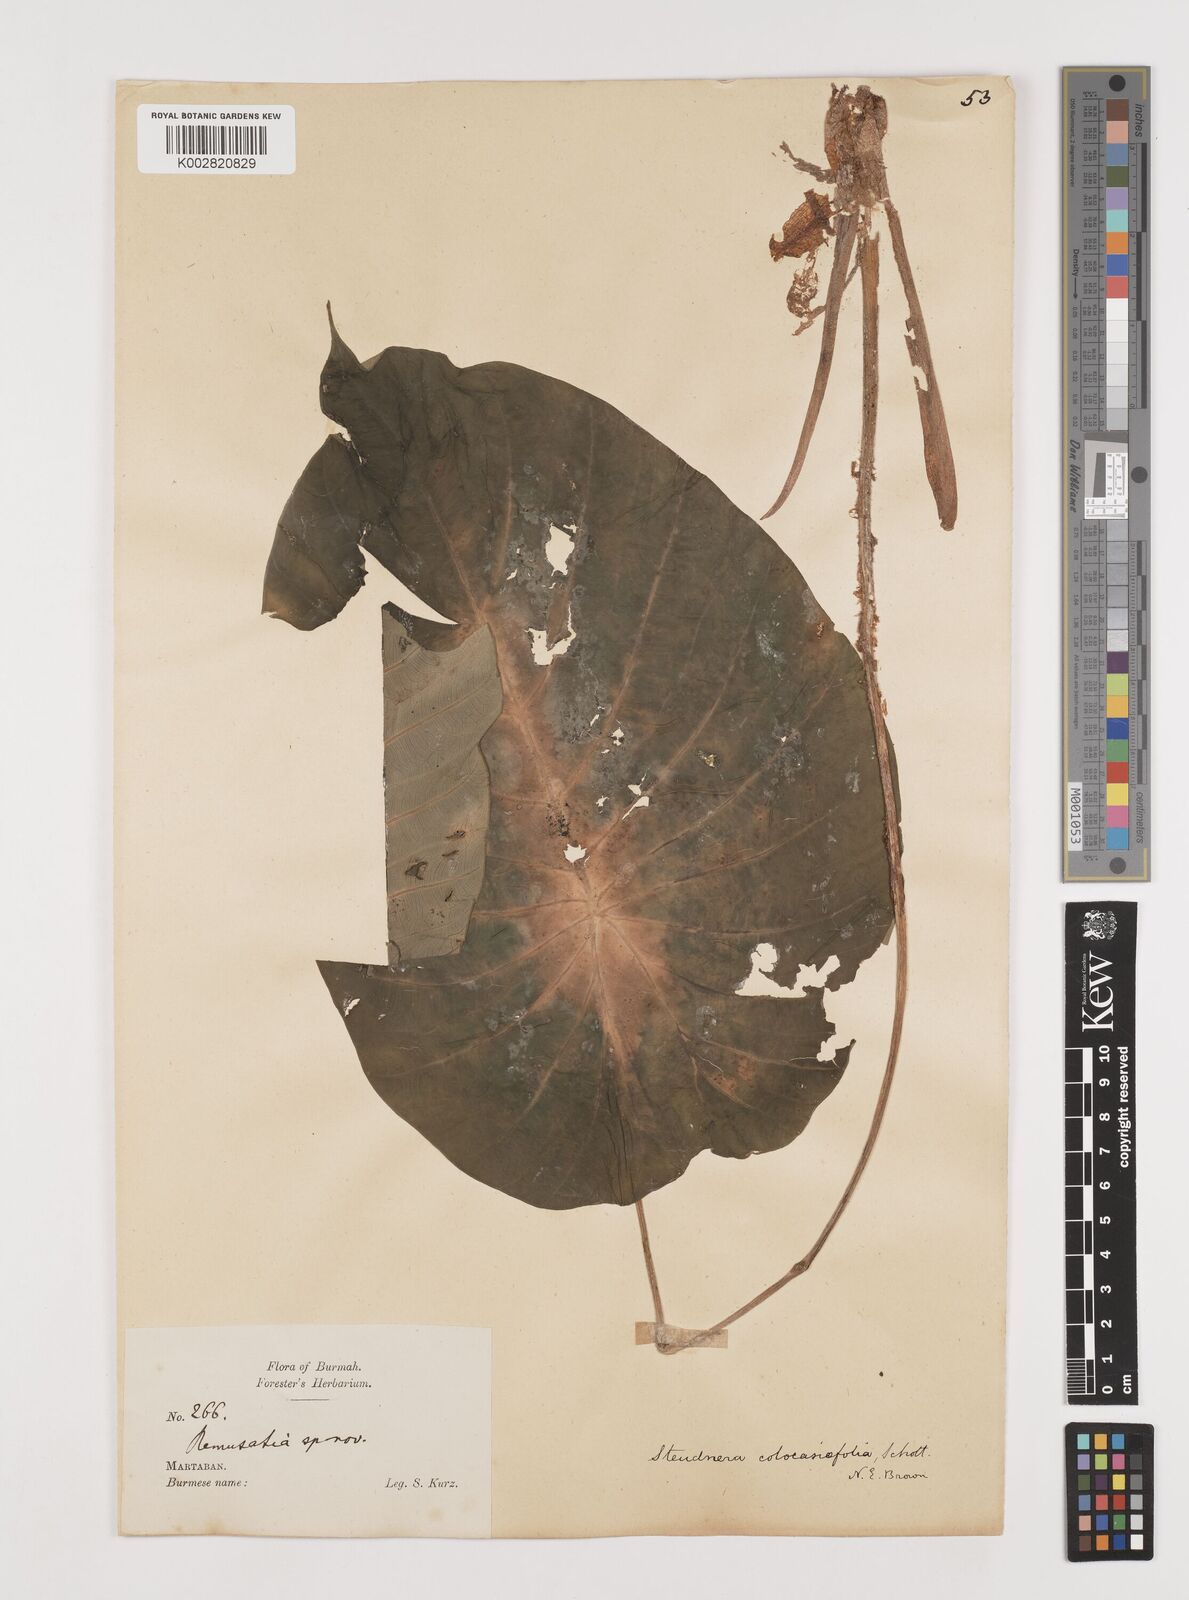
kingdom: Plantae
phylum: Tracheophyta
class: Liliopsida
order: Alismatales
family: Araceae
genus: Steudnera
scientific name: Steudnera colocasiifolia
